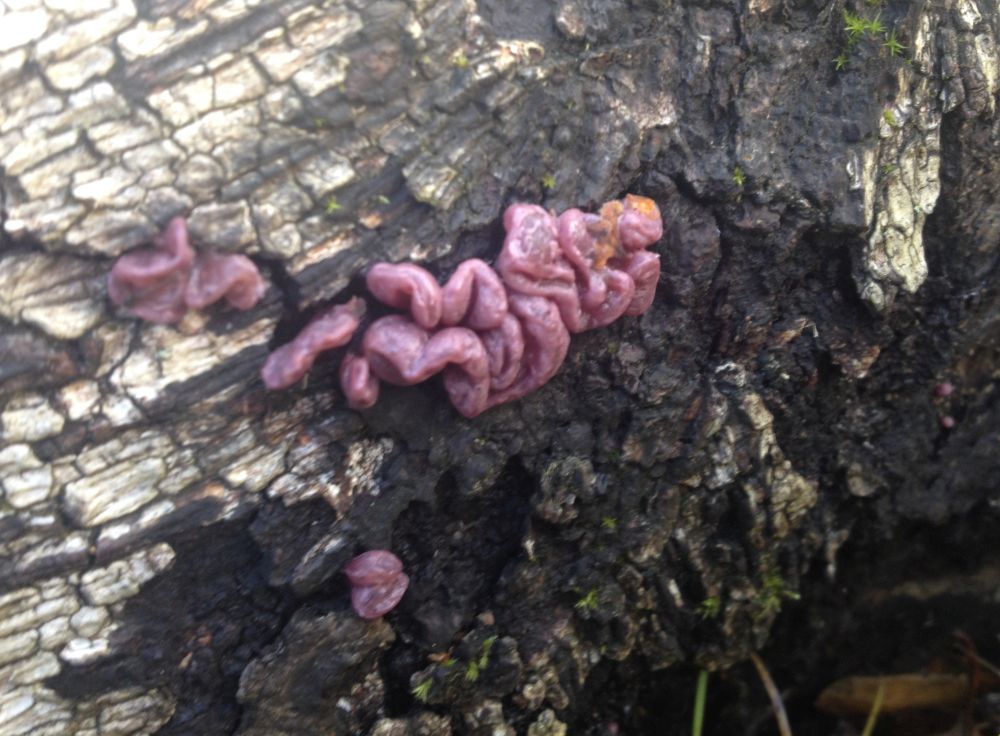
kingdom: Fungi
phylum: Ascomycota
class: Leotiomycetes
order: Helotiales
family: Gelatinodiscaceae
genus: Ascocoryne
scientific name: Ascocoryne sarcoides
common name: rødlilla sejskive
